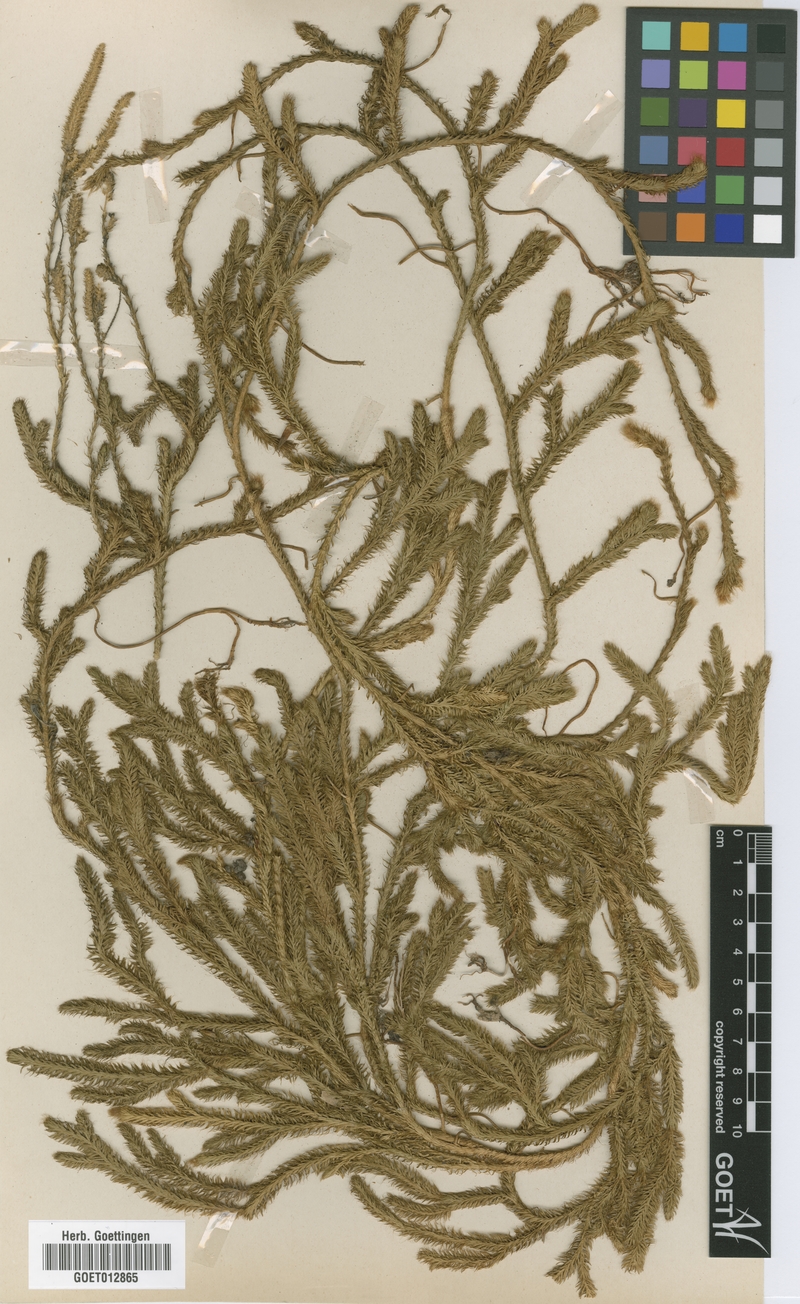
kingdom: Plantae
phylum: Tracheophyta
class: Lycopodiopsida
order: Lycopodiales
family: Lycopodiaceae
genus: Lycopodium
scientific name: Lycopodium clavatum
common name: Stag's-horn clubmoss
